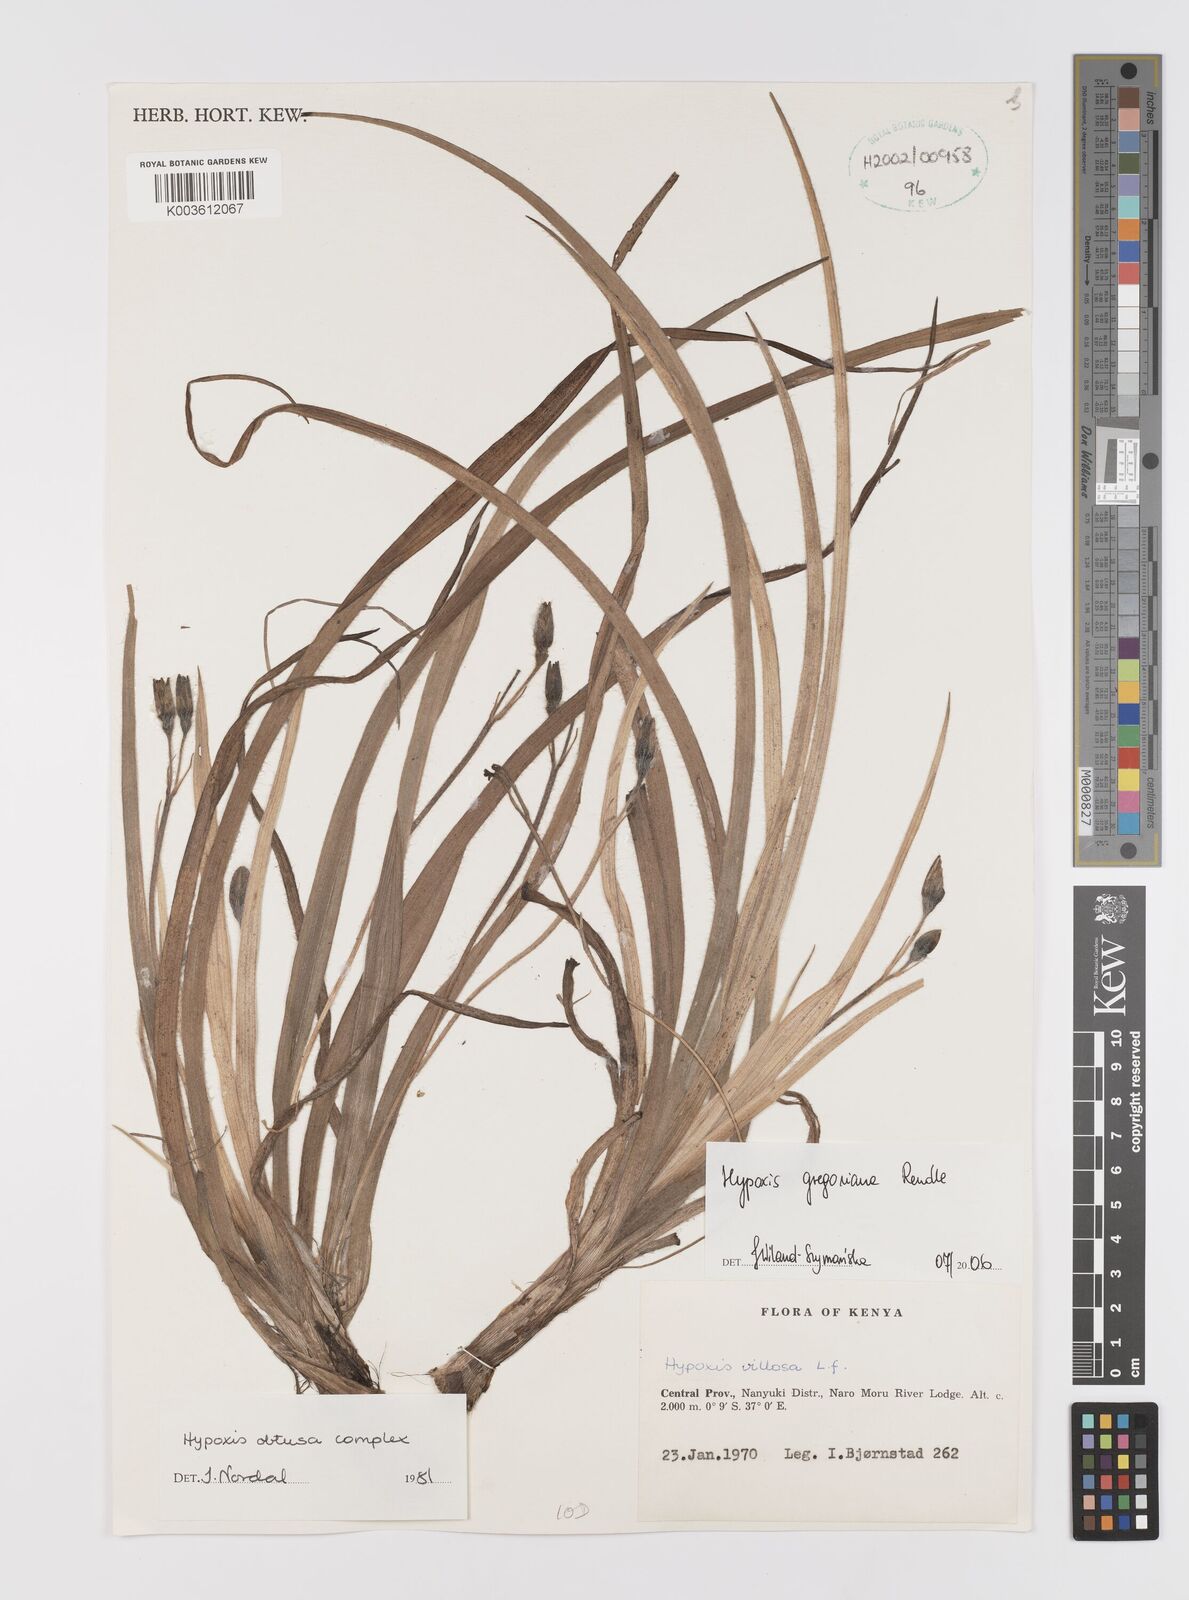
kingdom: Plantae
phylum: Tracheophyta
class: Liliopsida
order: Asparagales
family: Hypoxidaceae
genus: Hypoxis
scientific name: Hypoxis gregoriana
